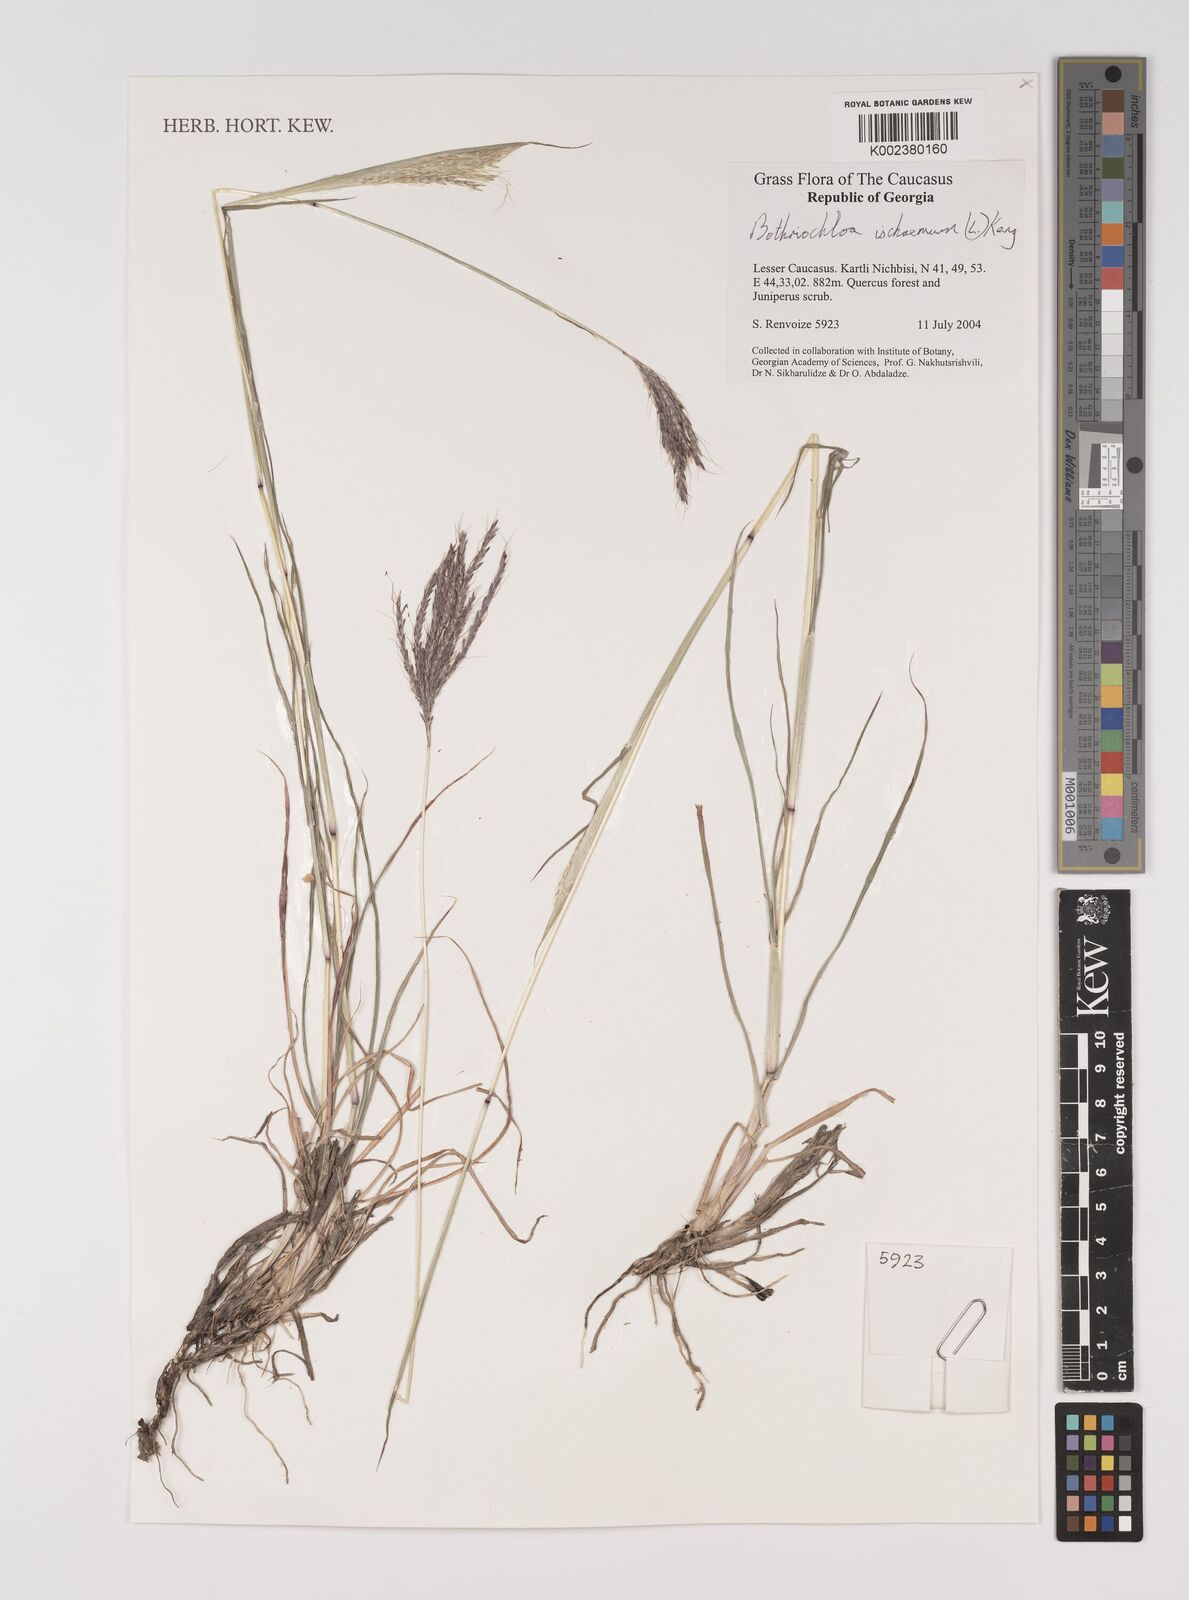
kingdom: Plantae
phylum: Tracheophyta
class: Liliopsida
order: Poales
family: Poaceae
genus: Bothriochloa
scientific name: Bothriochloa ischaemum
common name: Yellow bluestem
